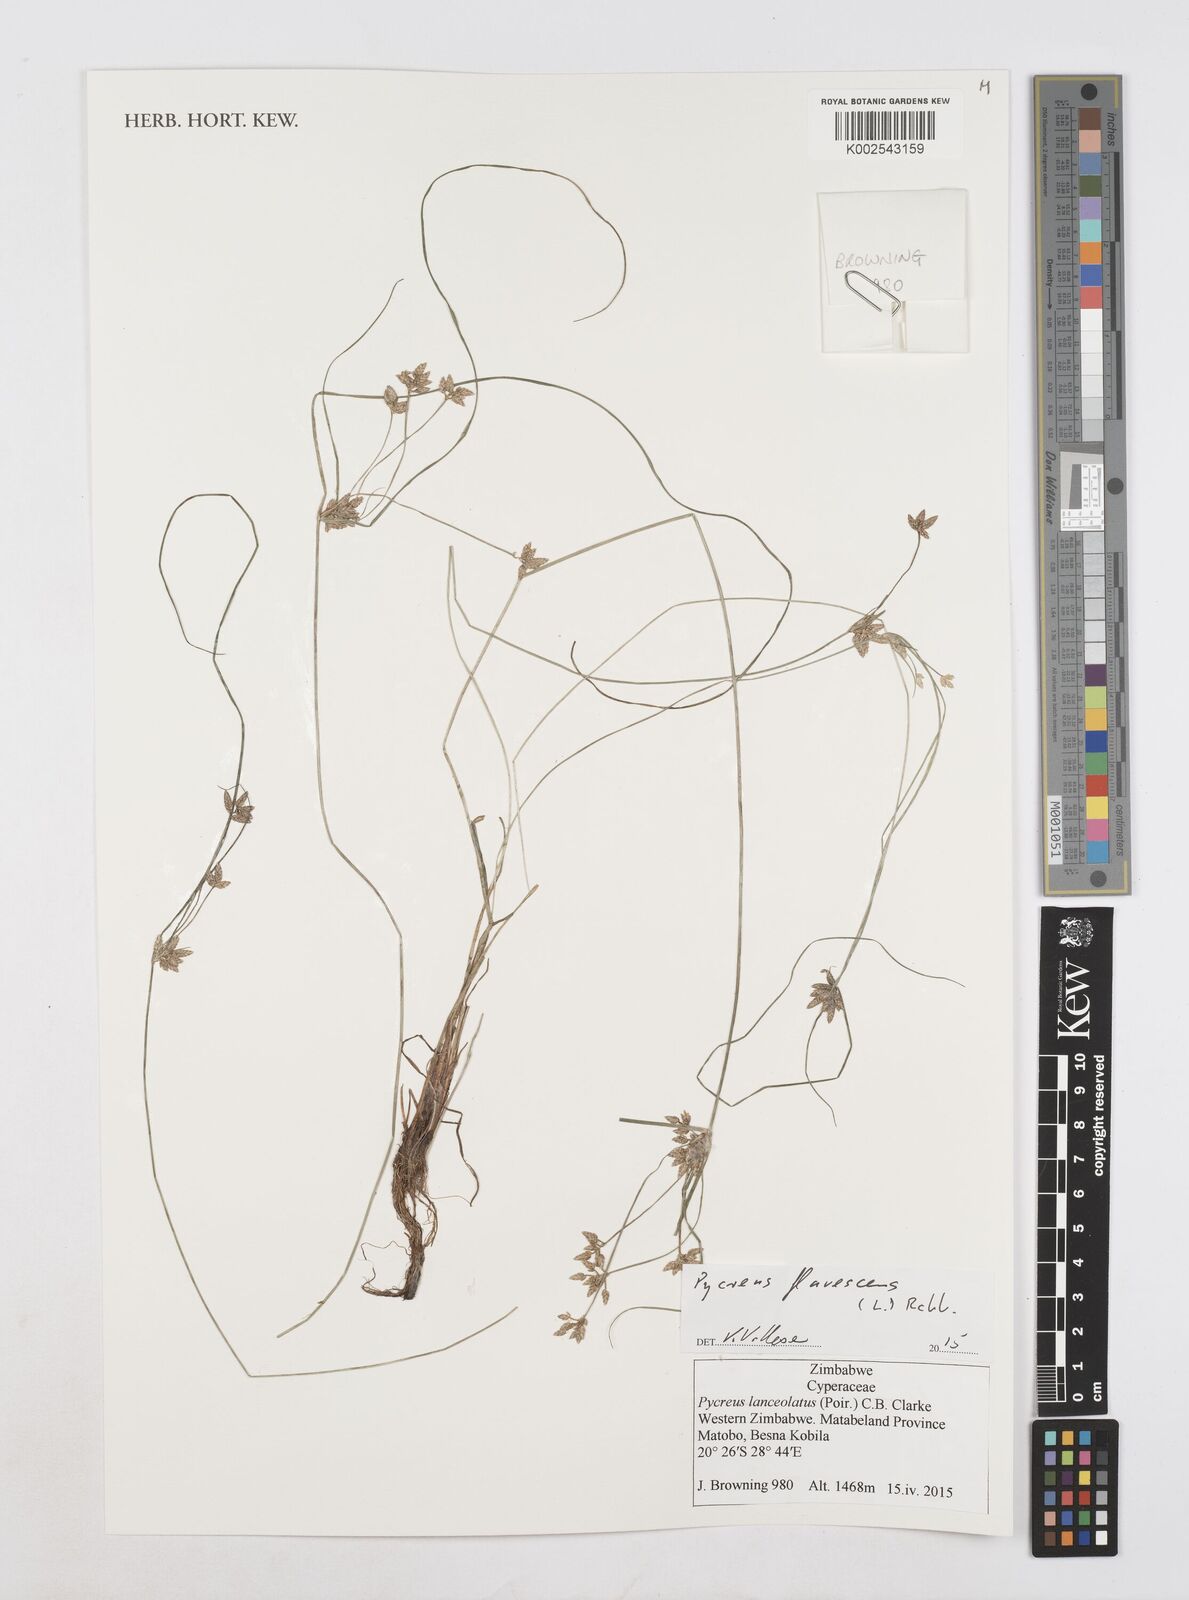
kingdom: Plantae
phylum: Tracheophyta
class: Liliopsida
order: Poales
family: Cyperaceae
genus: Cyperus
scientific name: Cyperus flavescens
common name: Yellow galingale
